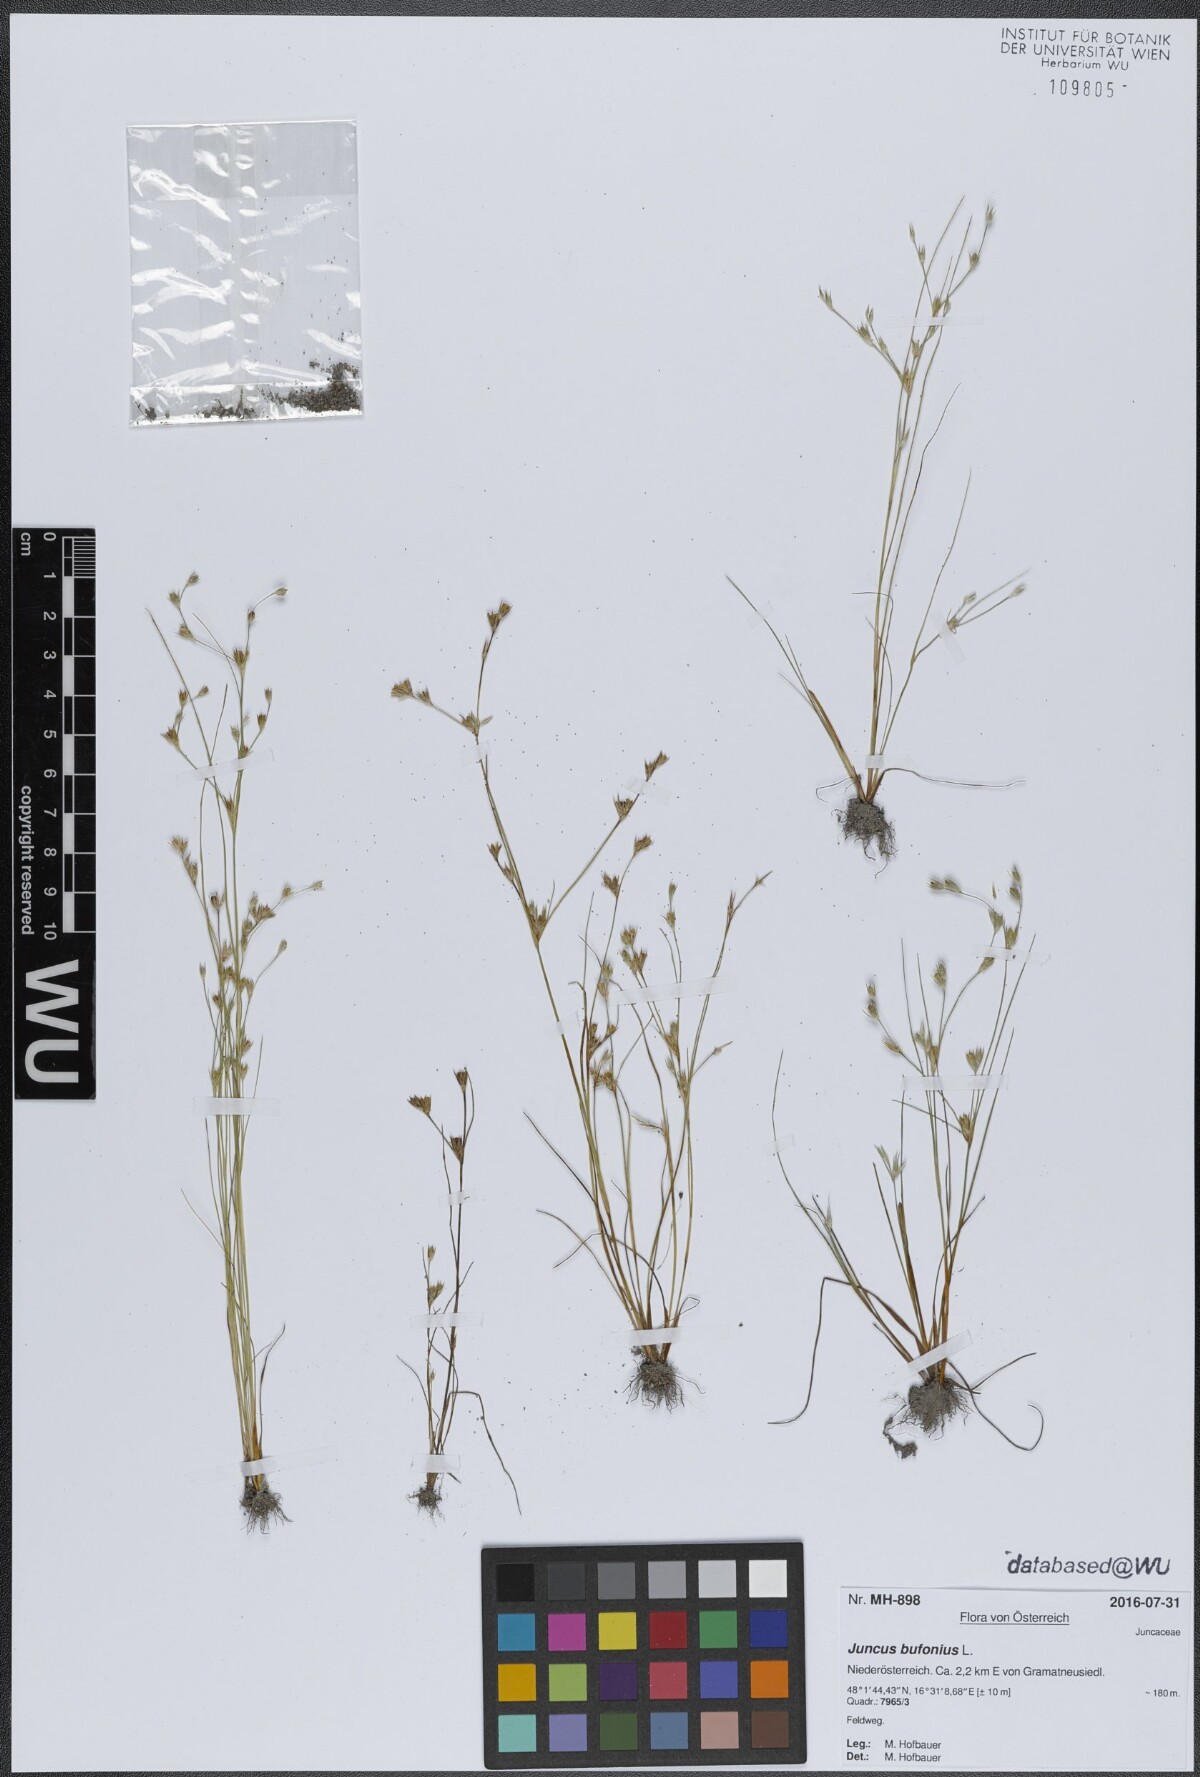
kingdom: Plantae
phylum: Tracheophyta
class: Liliopsida
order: Poales
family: Juncaceae
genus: Juncus
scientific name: Juncus bufonius
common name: Toad rush
